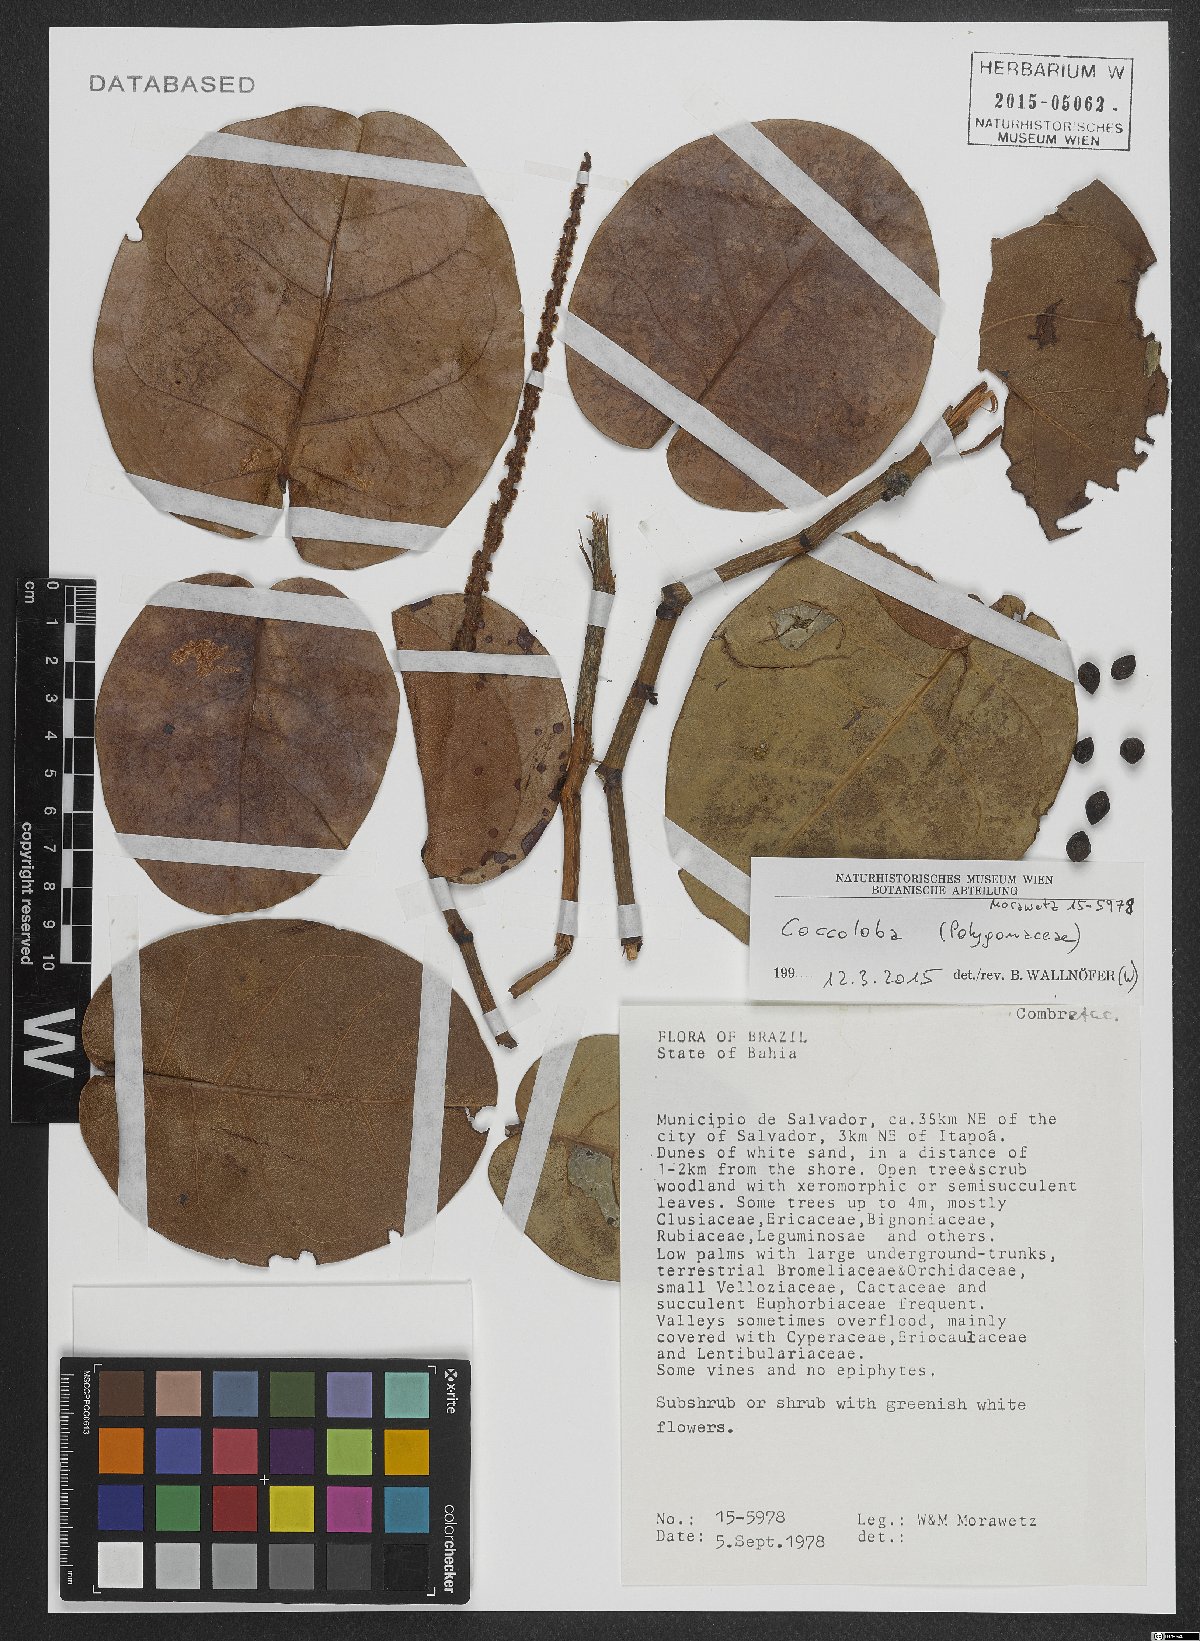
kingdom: Plantae
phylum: Tracheophyta
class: Magnoliopsida
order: Caryophyllales
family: Polygonaceae
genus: Coccoloba
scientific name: Coccoloba
